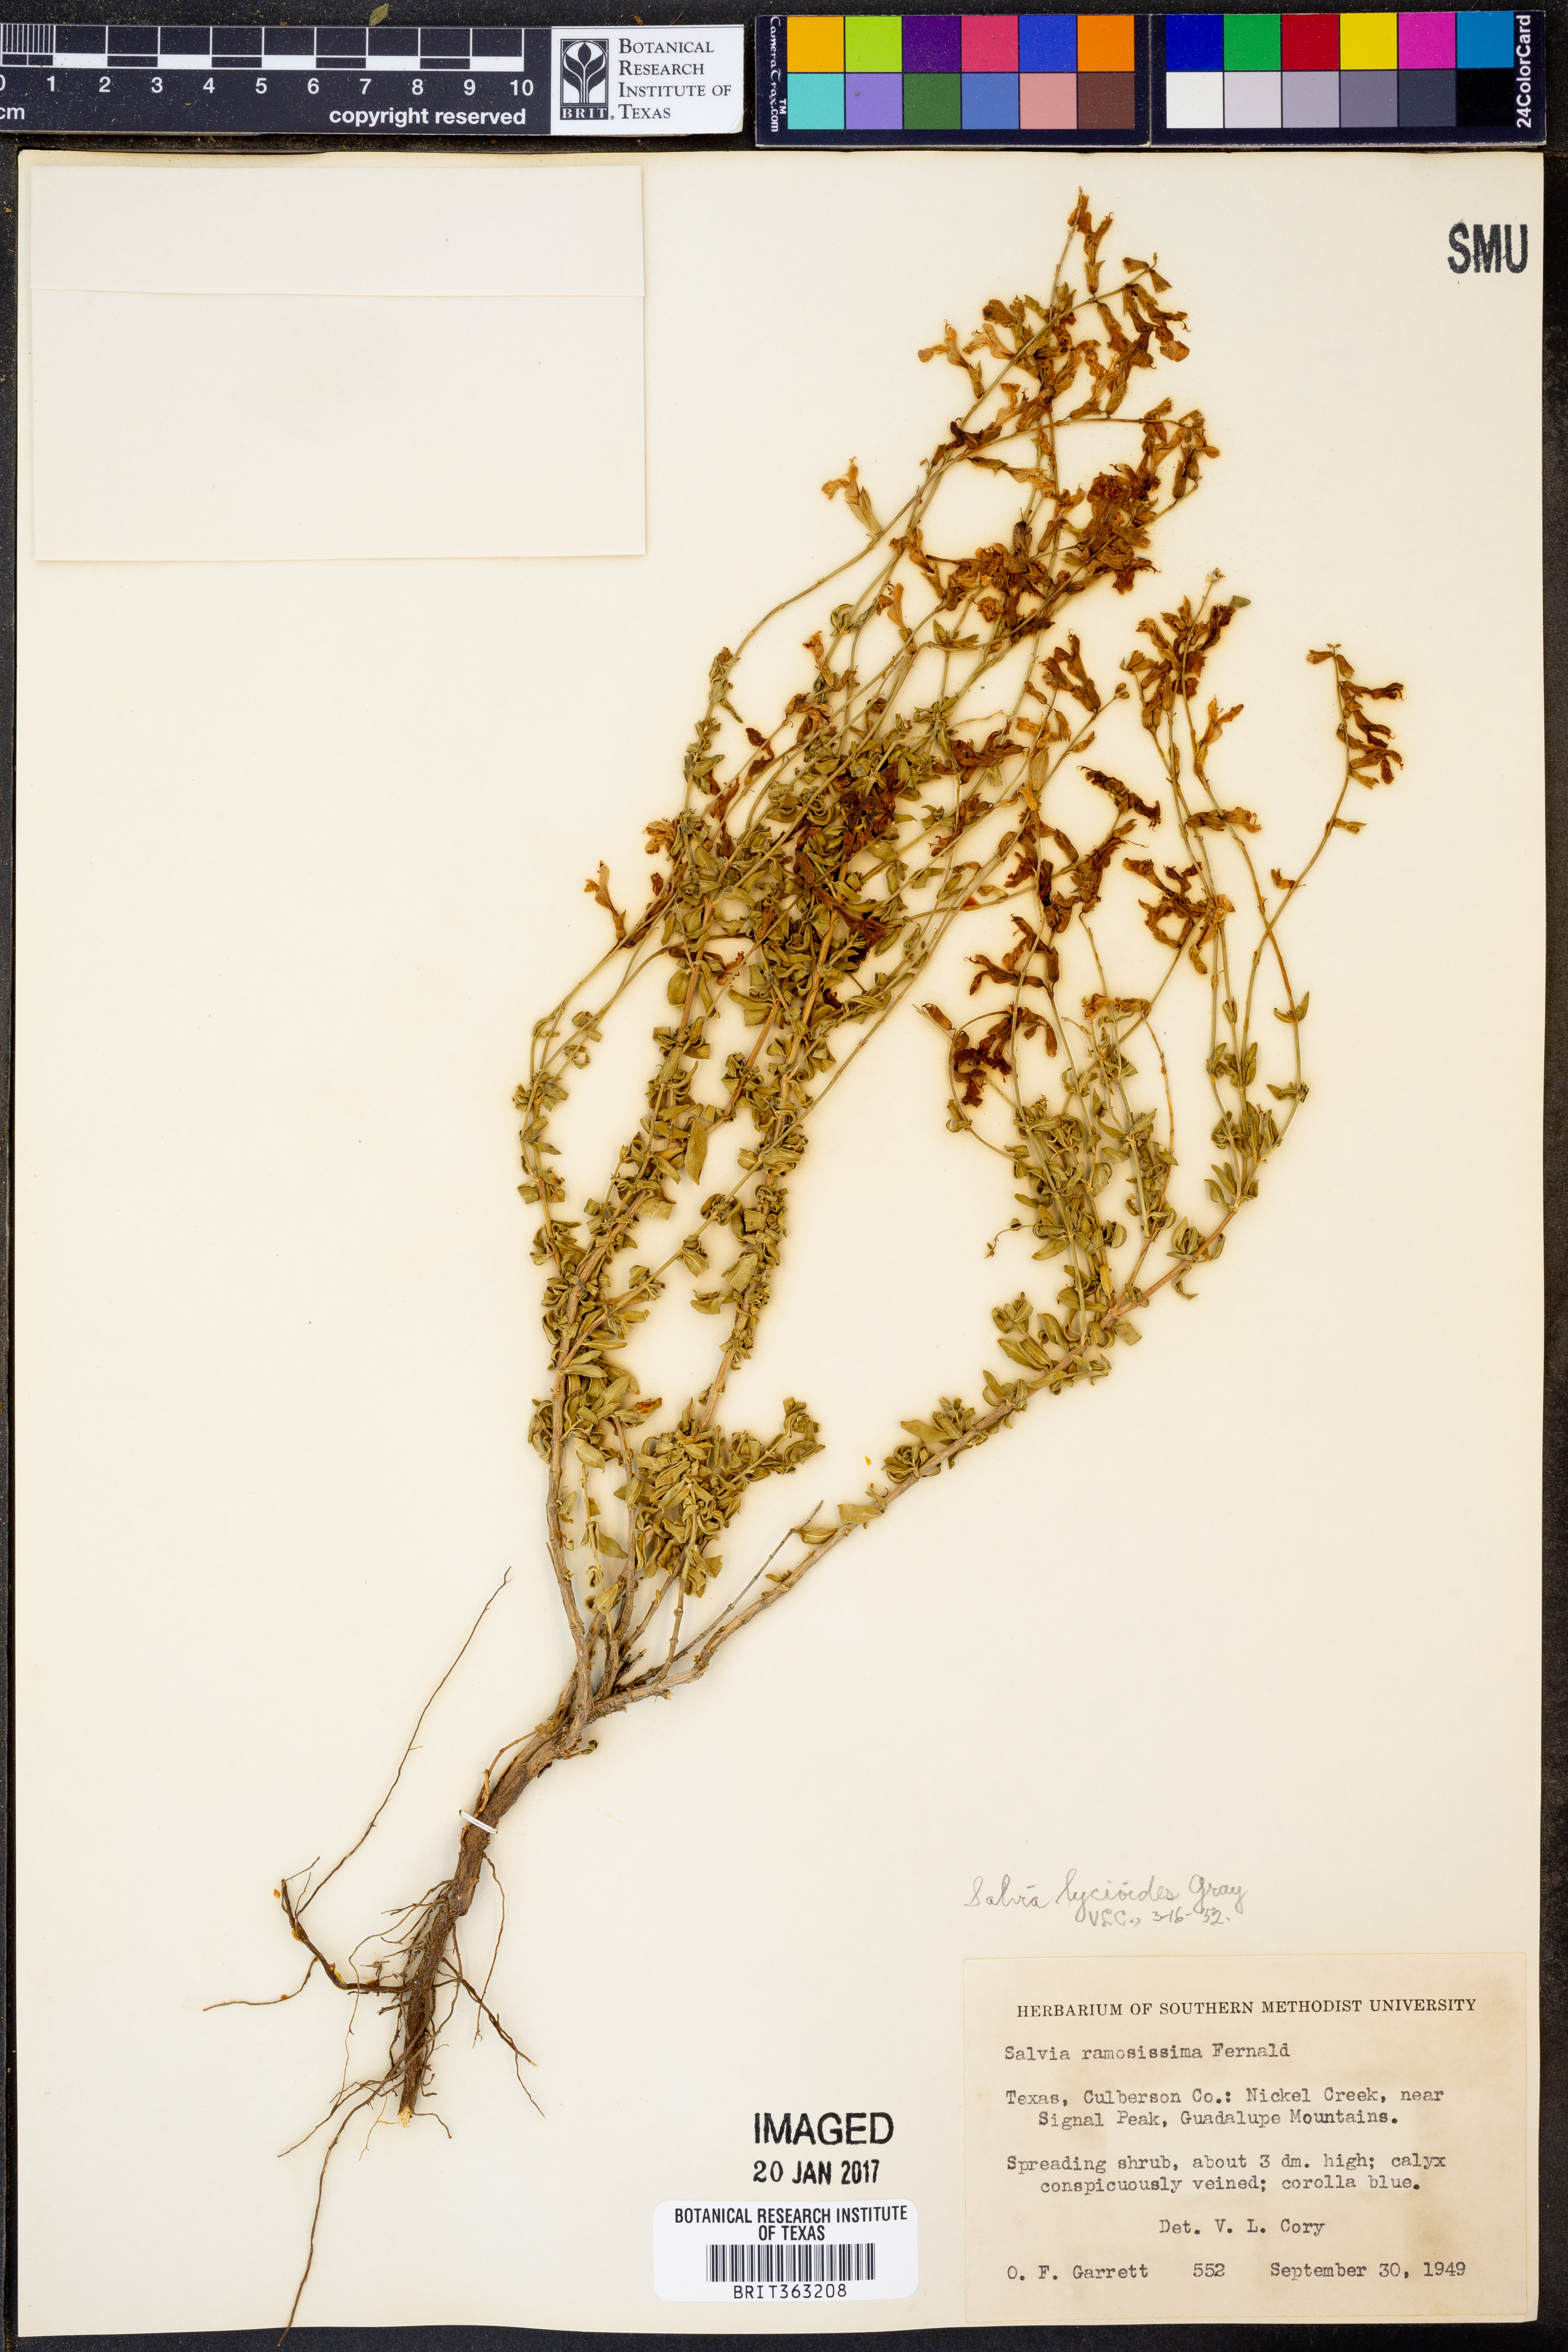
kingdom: Plantae
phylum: Tracheophyta
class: Magnoliopsida
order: Lamiales
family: Lamiaceae
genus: Salvia
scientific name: Salvia lycioides
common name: Canyon sage
